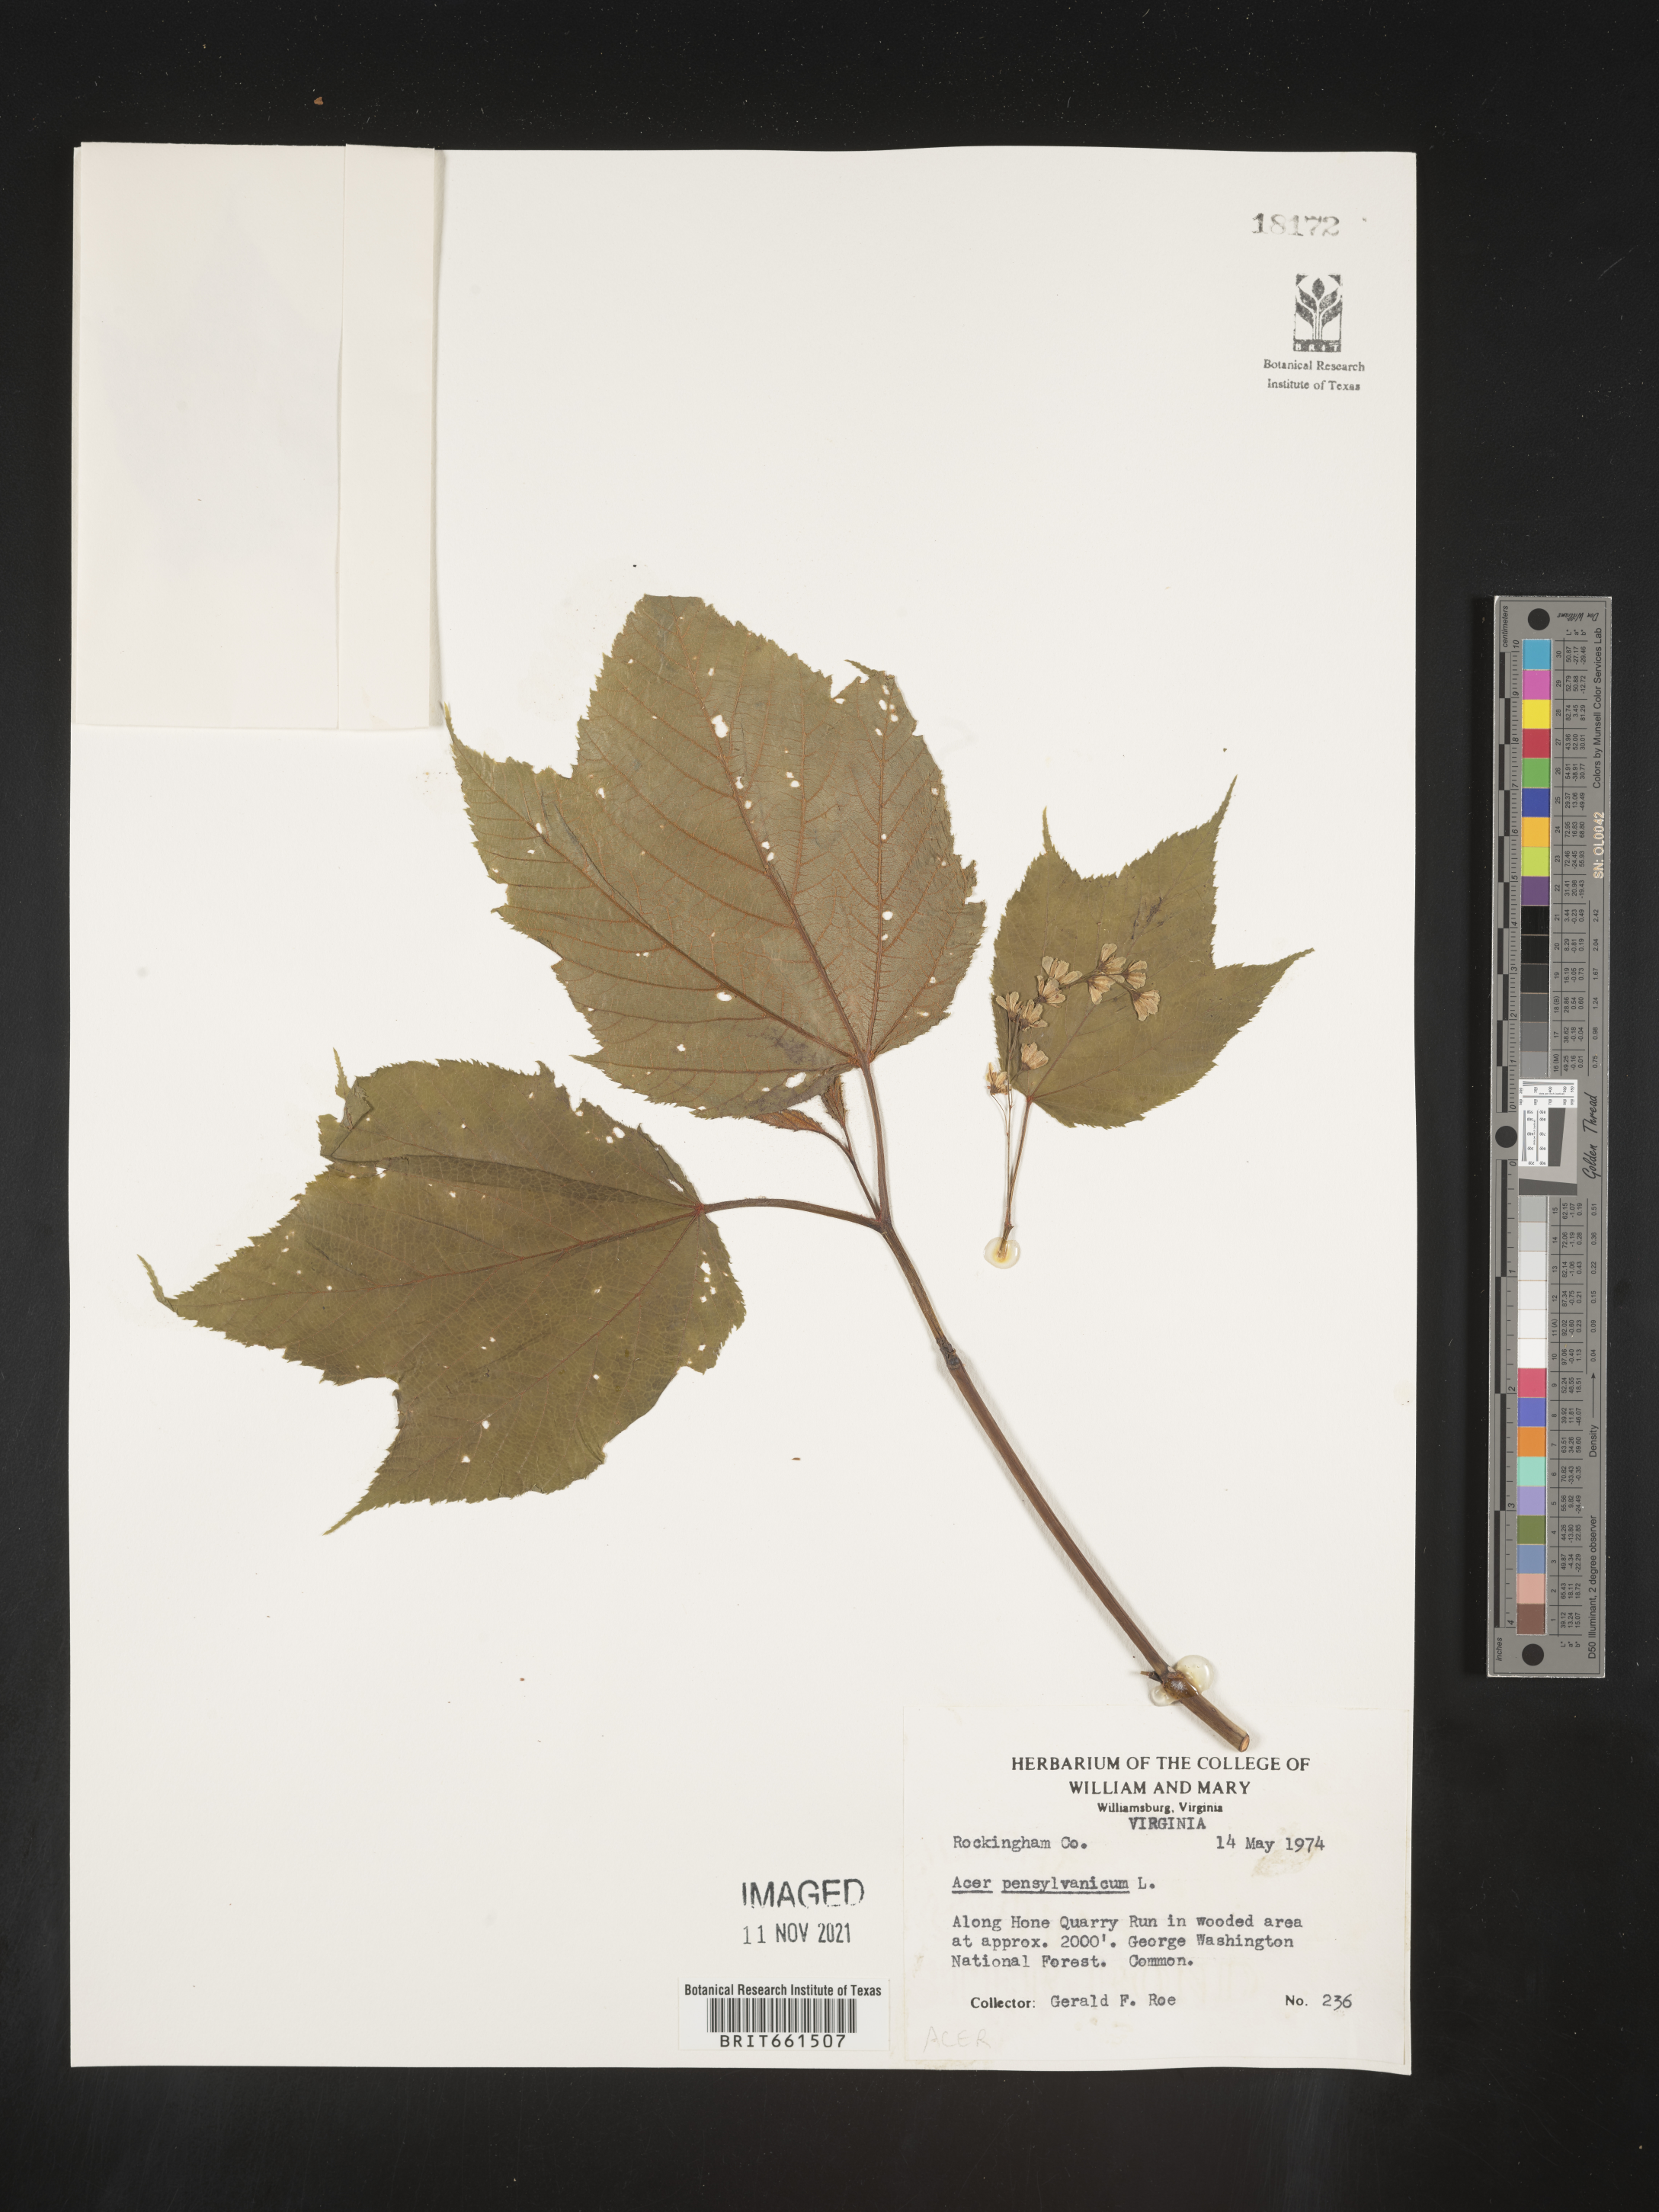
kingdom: Plantae
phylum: Tracheophyta
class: Magnoliopsida
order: Sapindales
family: Sapindaceae
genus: Acer
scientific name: Acer pensylvanicum
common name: Moosewood
